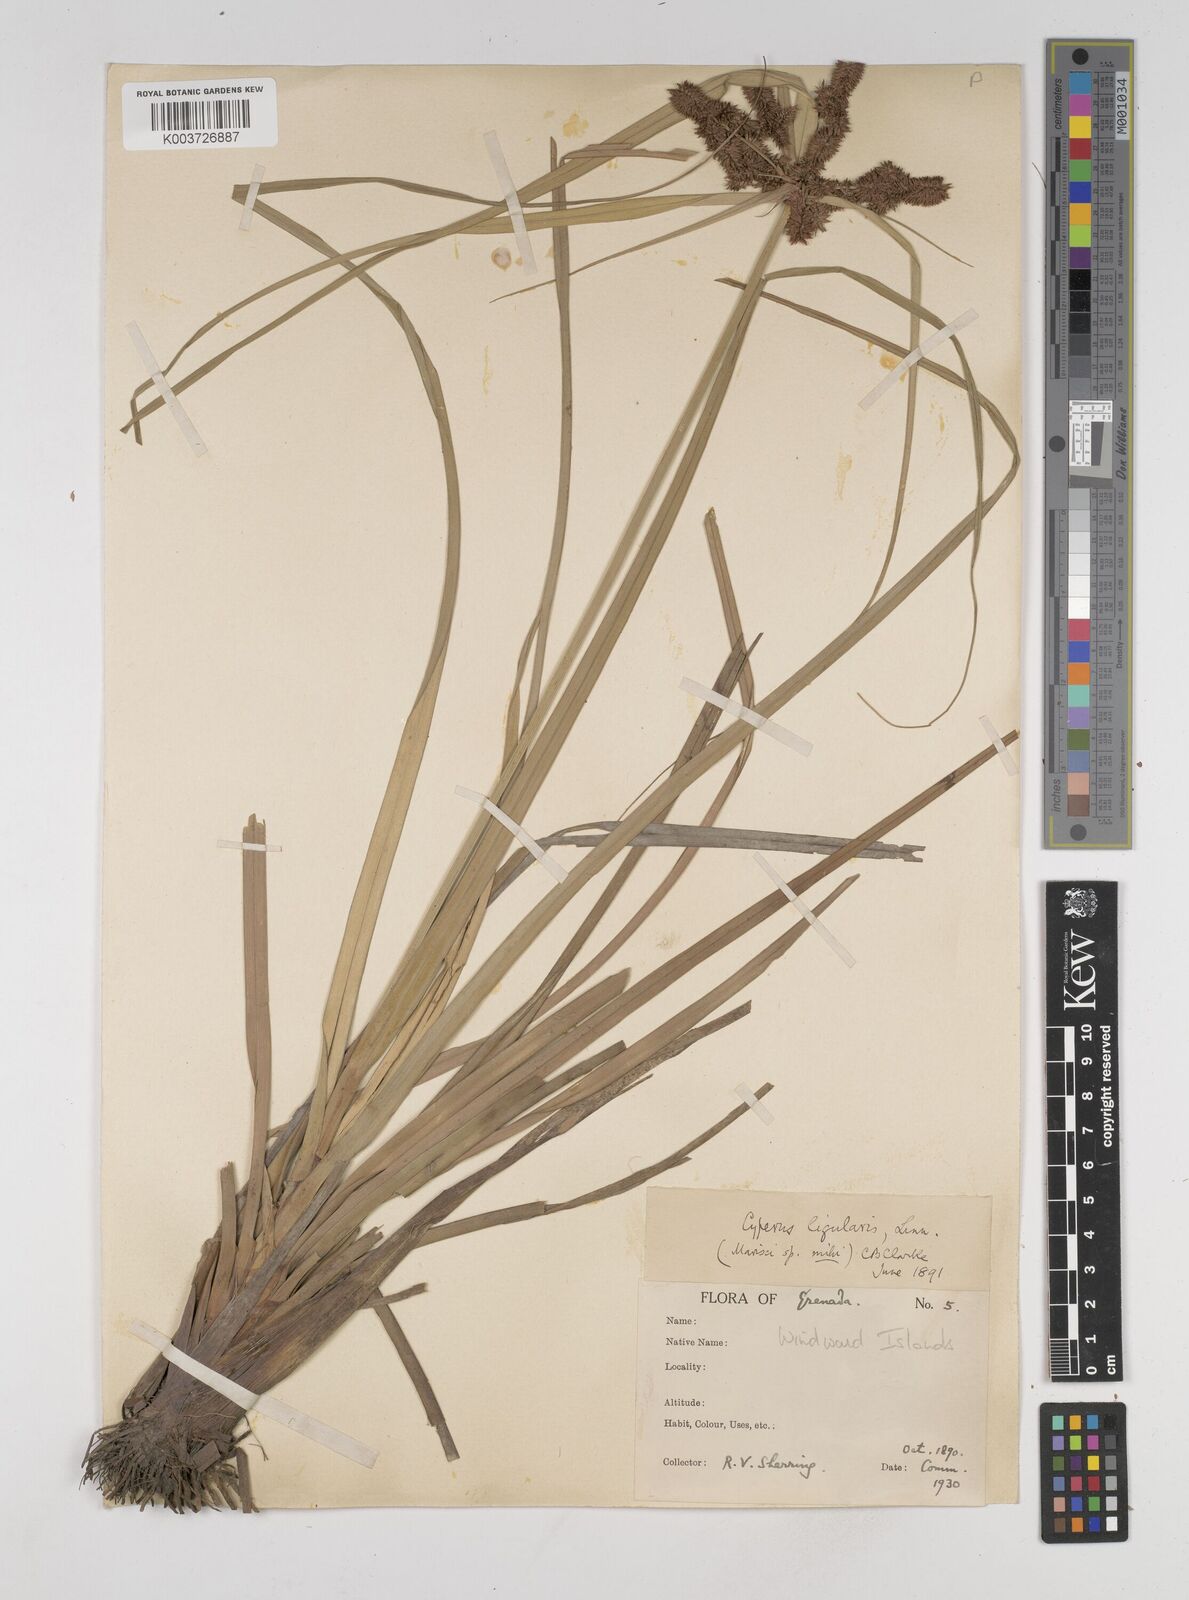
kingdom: Plantae
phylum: Tracheophyta
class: Liliopsida
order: Poales
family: Cyperaceae
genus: Cyperus
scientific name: Cyperus ligularis
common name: Swamp flat sedge
